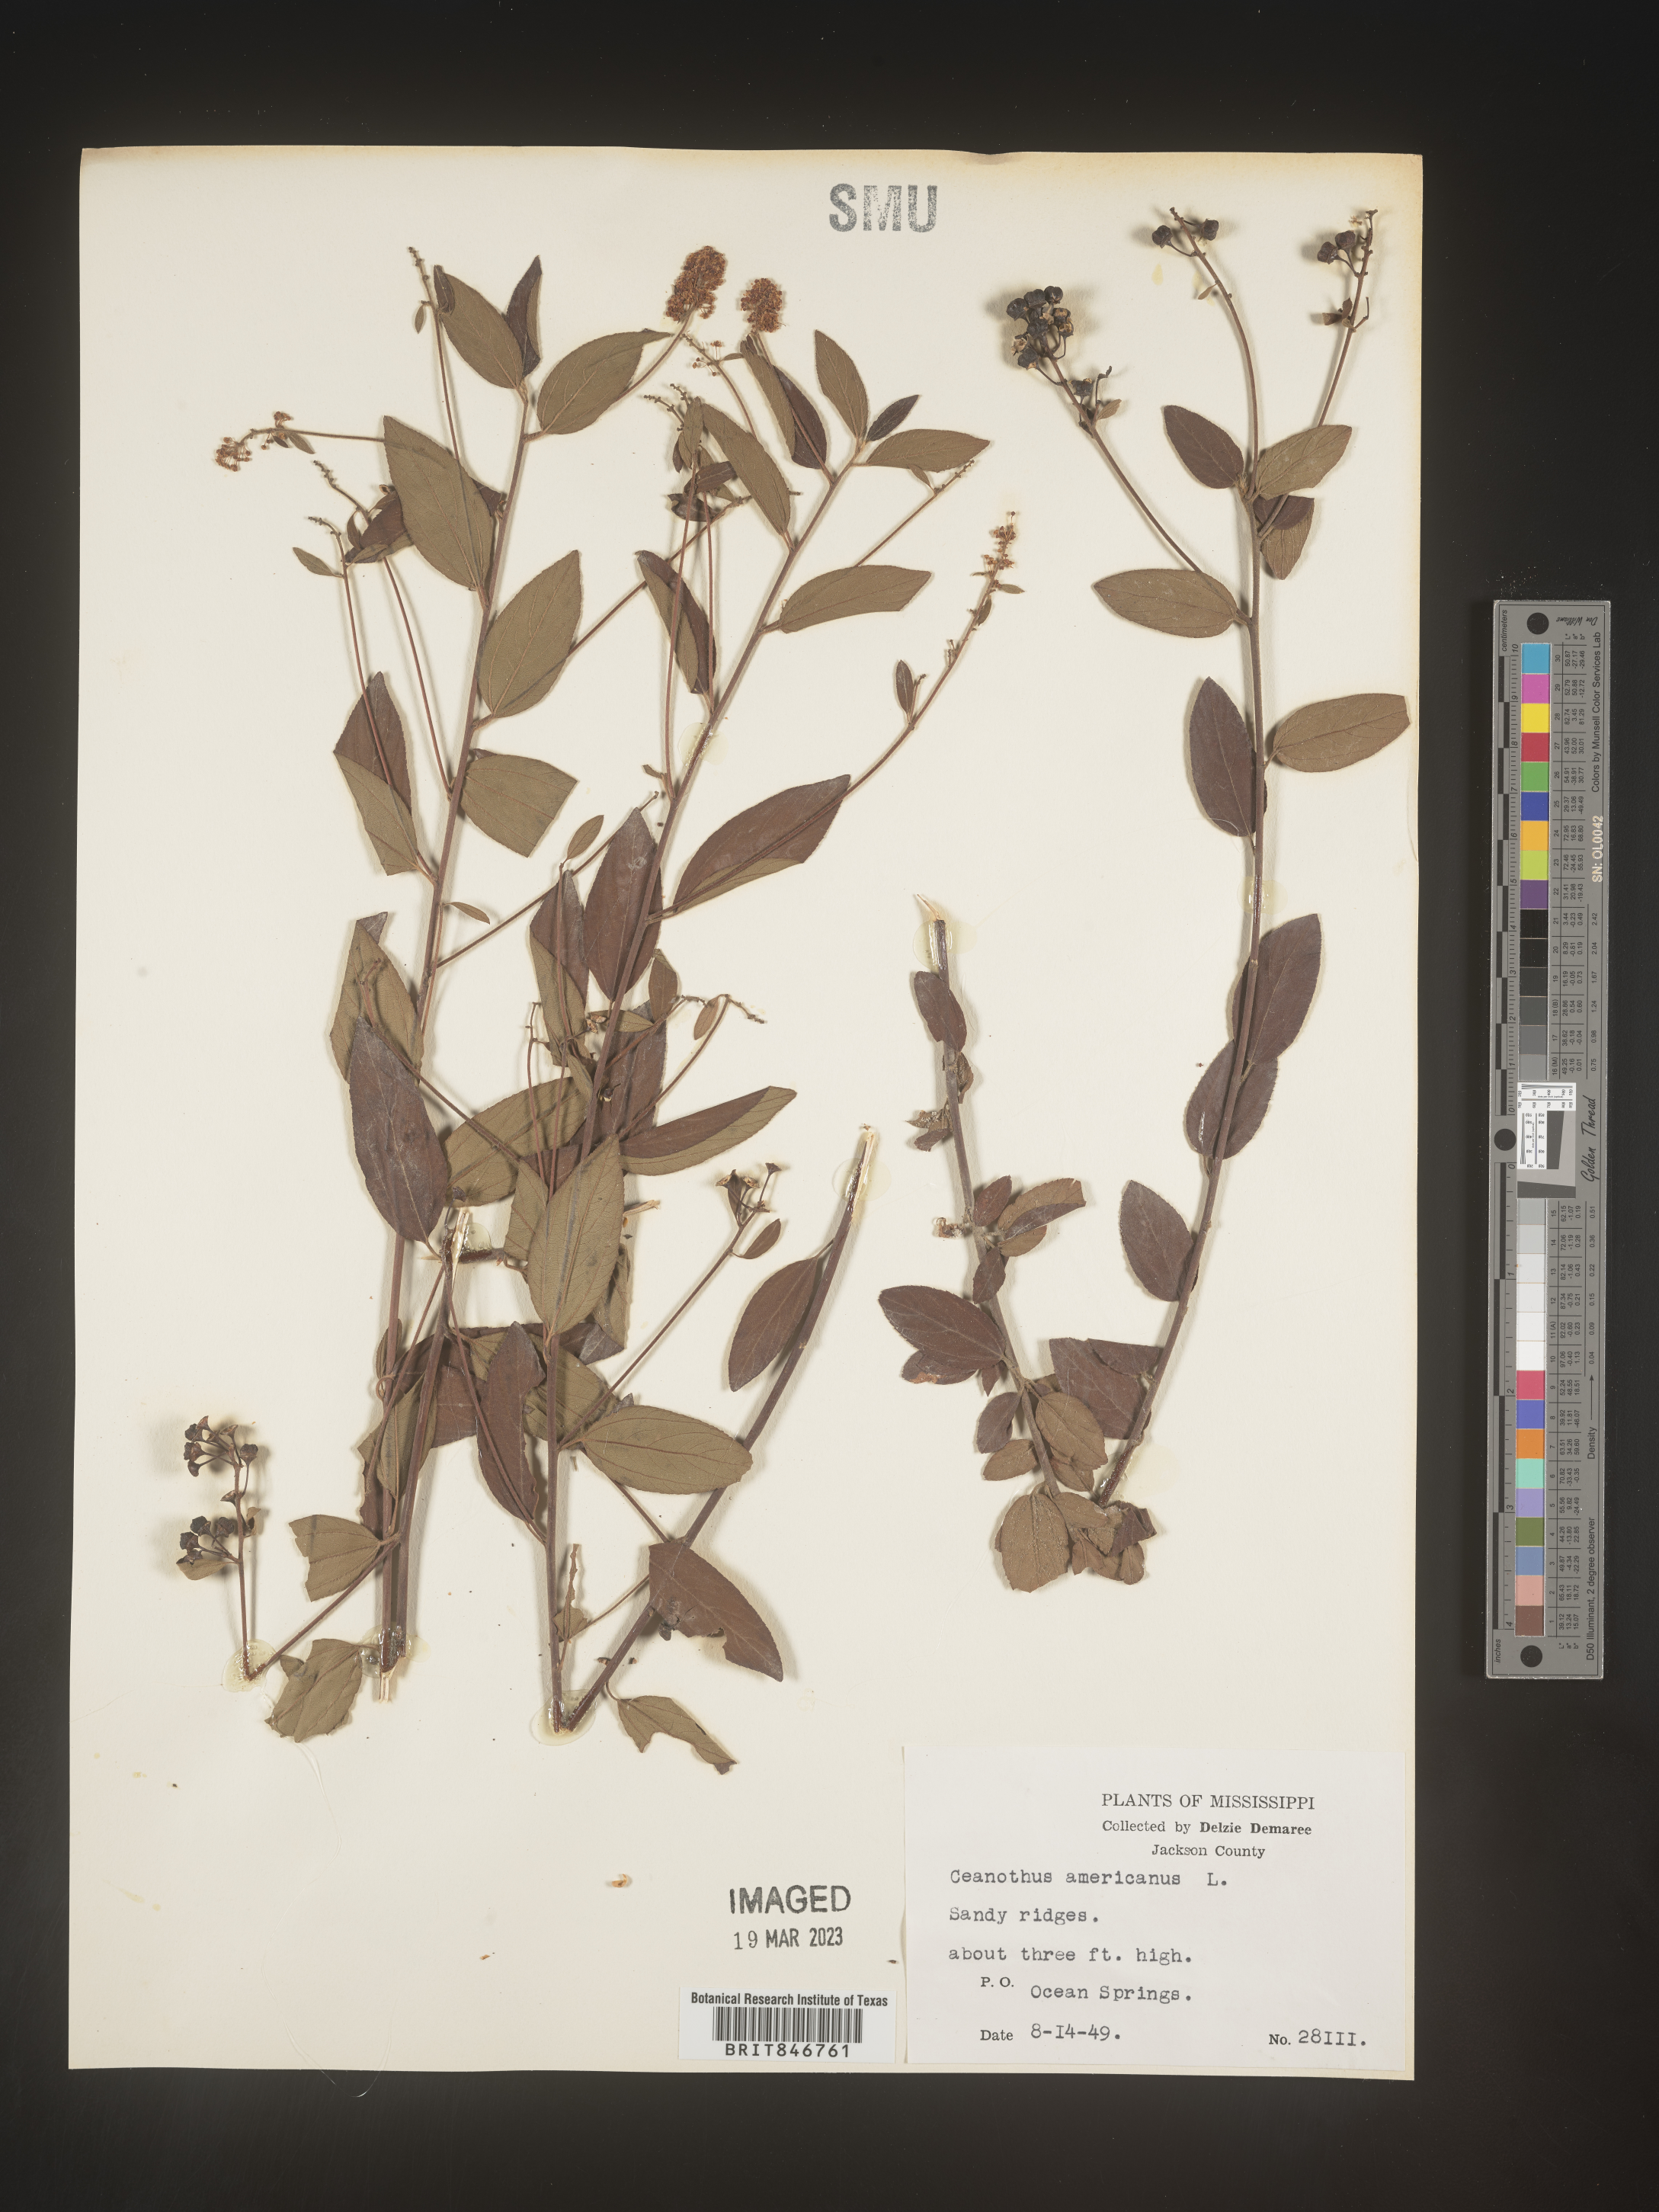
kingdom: Plantae
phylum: Tracheophyta
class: Magnoliopsida
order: Rosales
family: Rhamnaceae
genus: Ceanothus
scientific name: Ceanothus americanus
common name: Redroot
